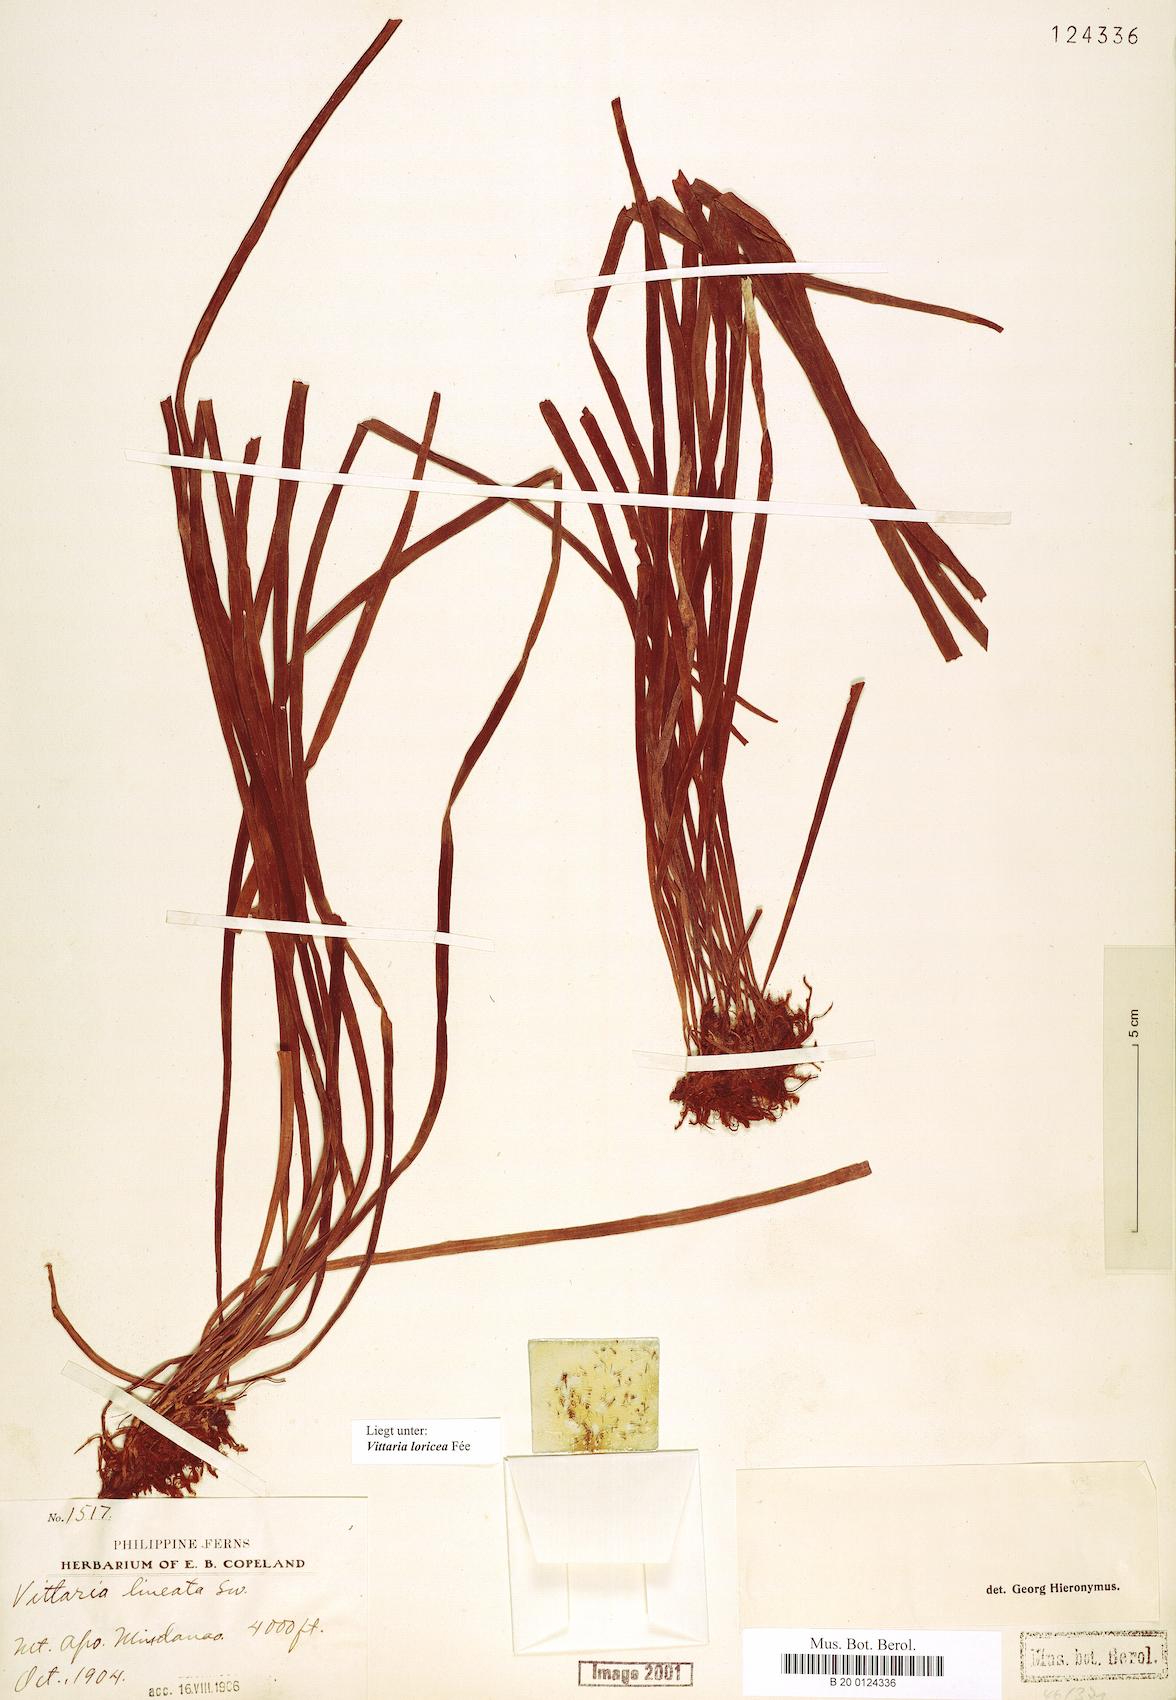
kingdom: Plantae
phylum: Tracheophyta
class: Polypodiopsida
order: Polypodiales
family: Pteridaceae
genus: Haplopteris
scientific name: Haplopteris zosterifolia
